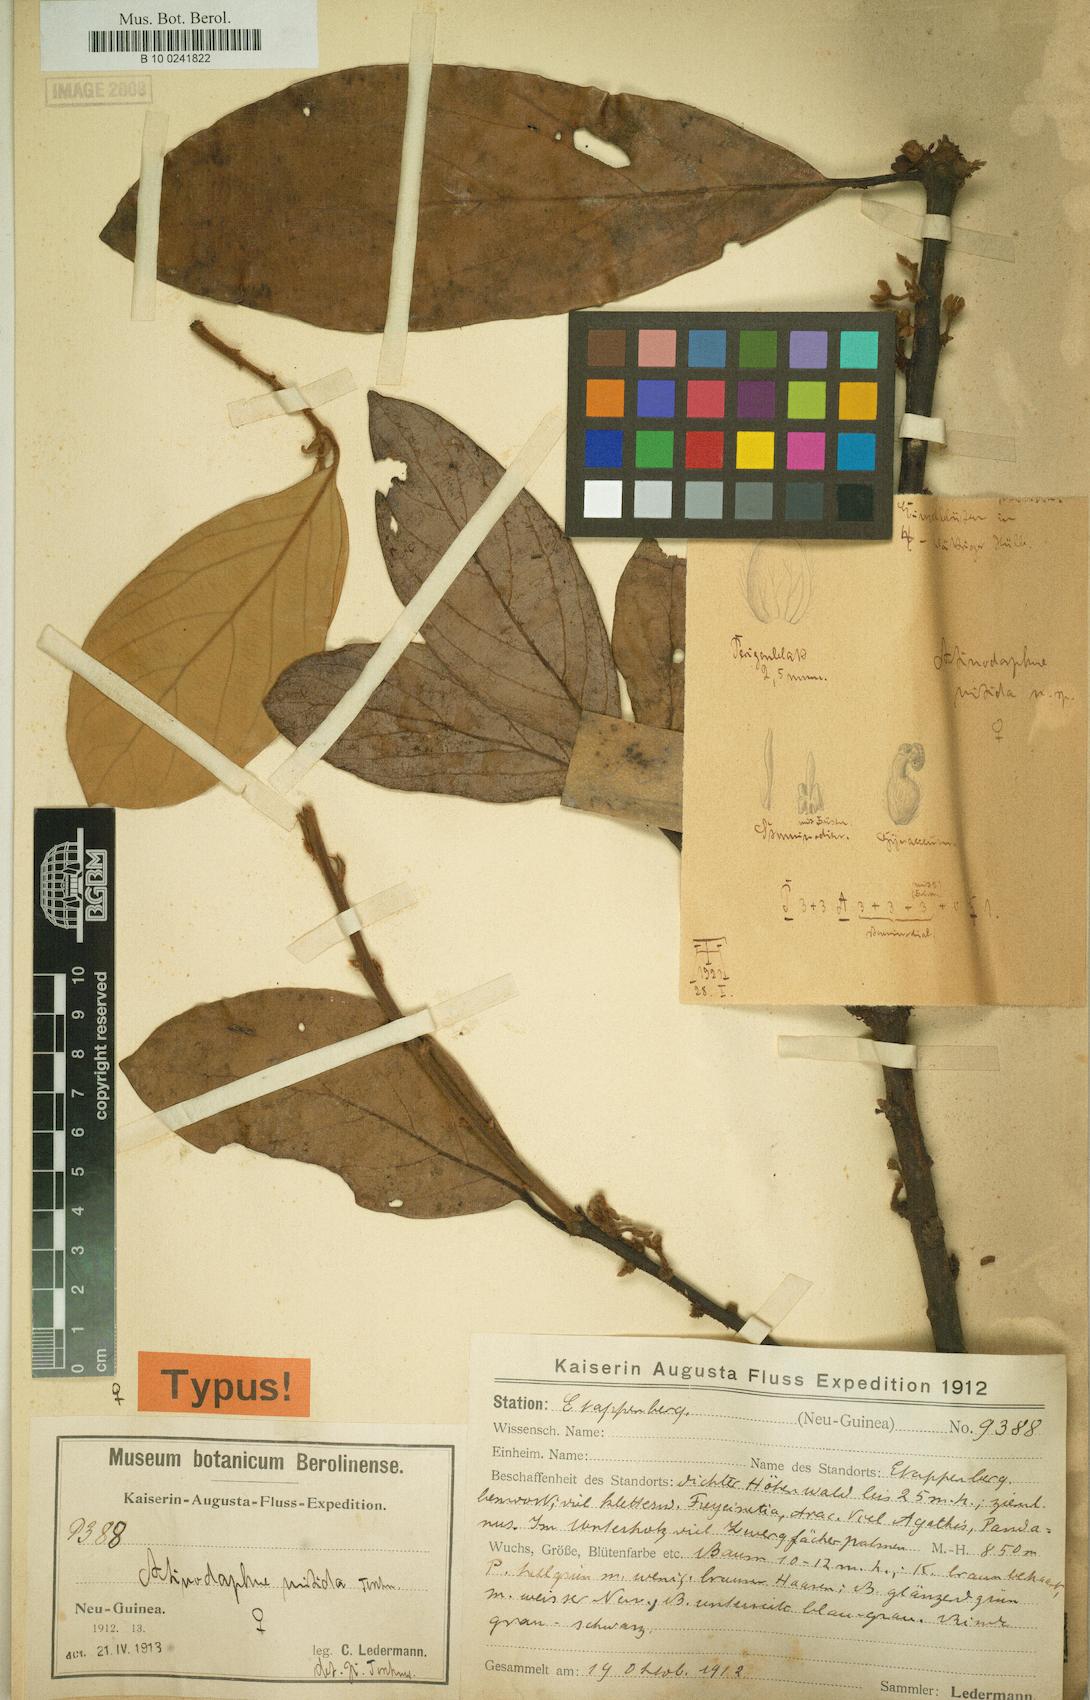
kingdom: Plantae
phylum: Tracheophyta
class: Magnoliopsida
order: Laurales
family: Lauraceae
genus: Actinodaphne
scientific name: Actinodaphne nitida
